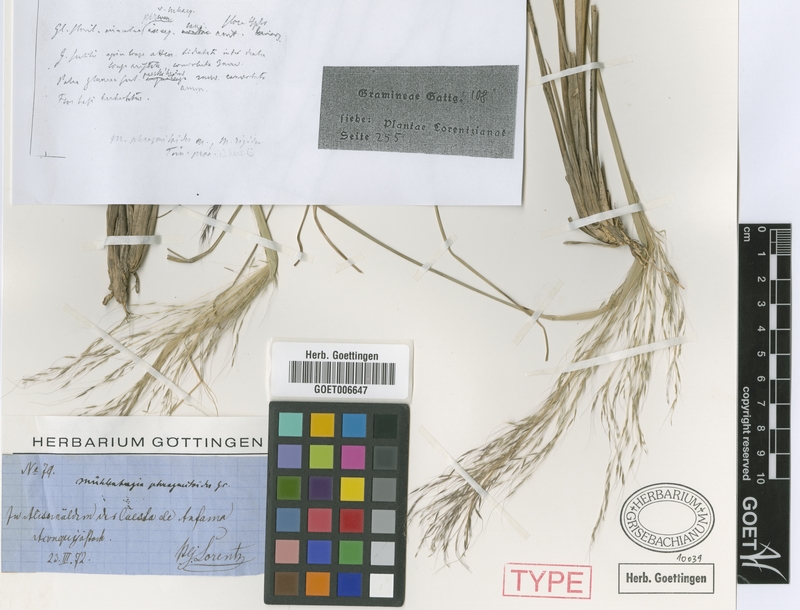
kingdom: Plantae
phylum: Tracheophyta
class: Liliopsida
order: Poales
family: Poaceae
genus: Muhlenbergia
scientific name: Muhlenbergia rigida
